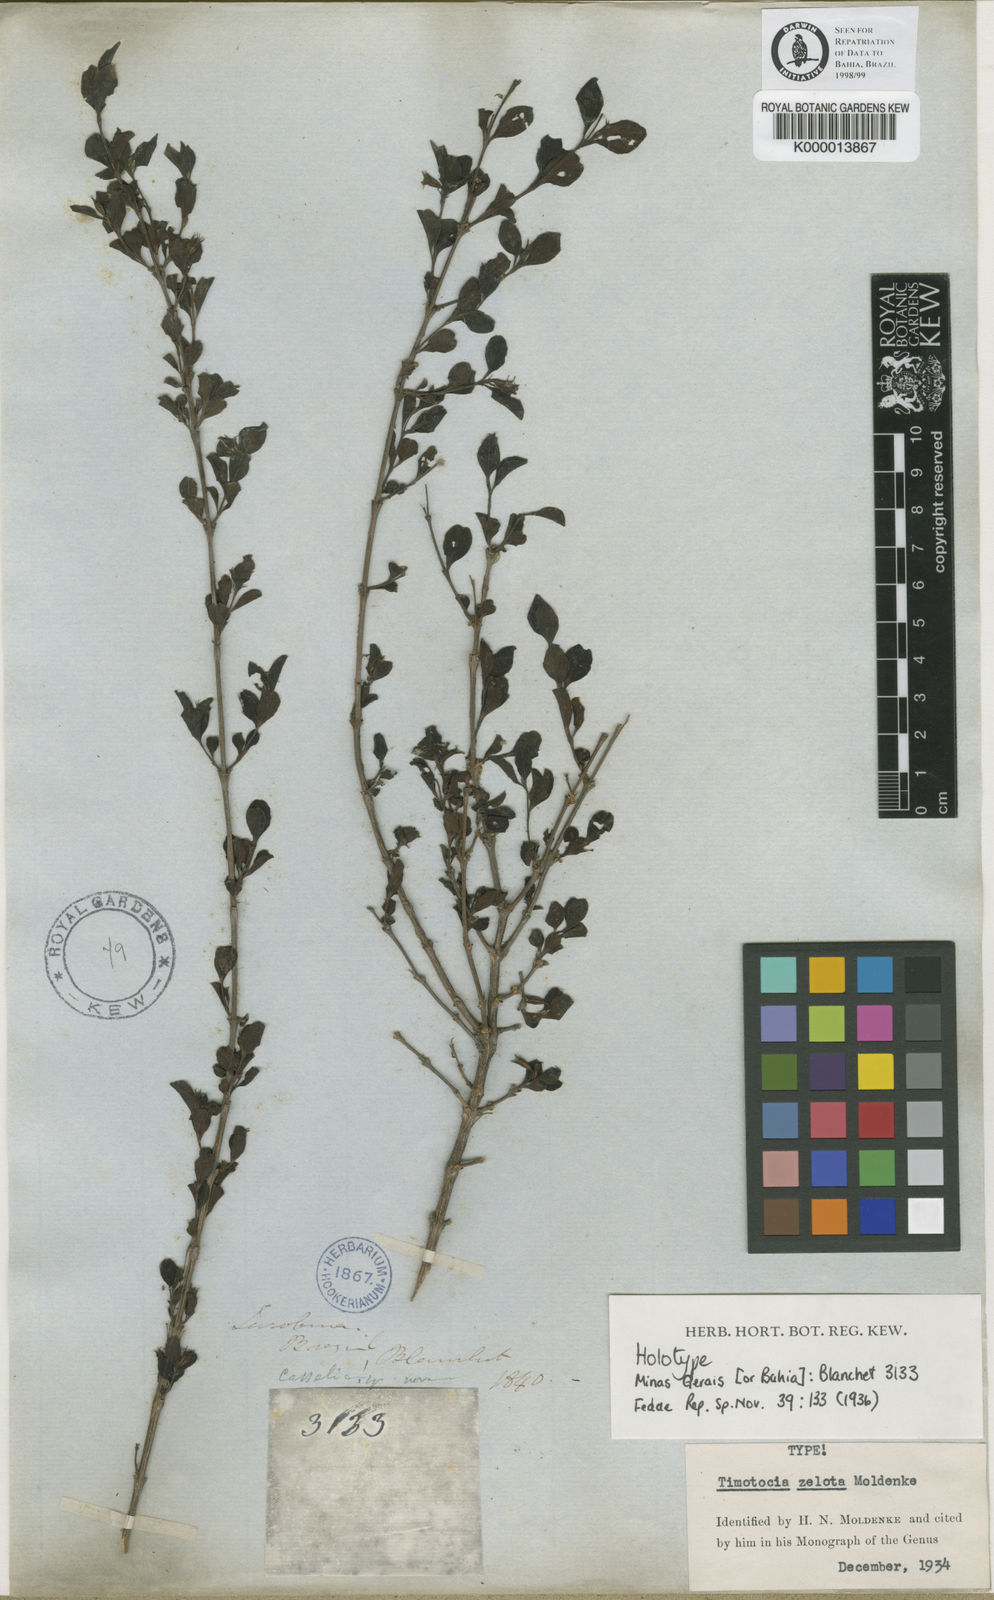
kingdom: Plantae
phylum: Tracheophyta
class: Magnoliopsida
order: Lamiales
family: Verbenaceae
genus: Casselia
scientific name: Casselia zelota
